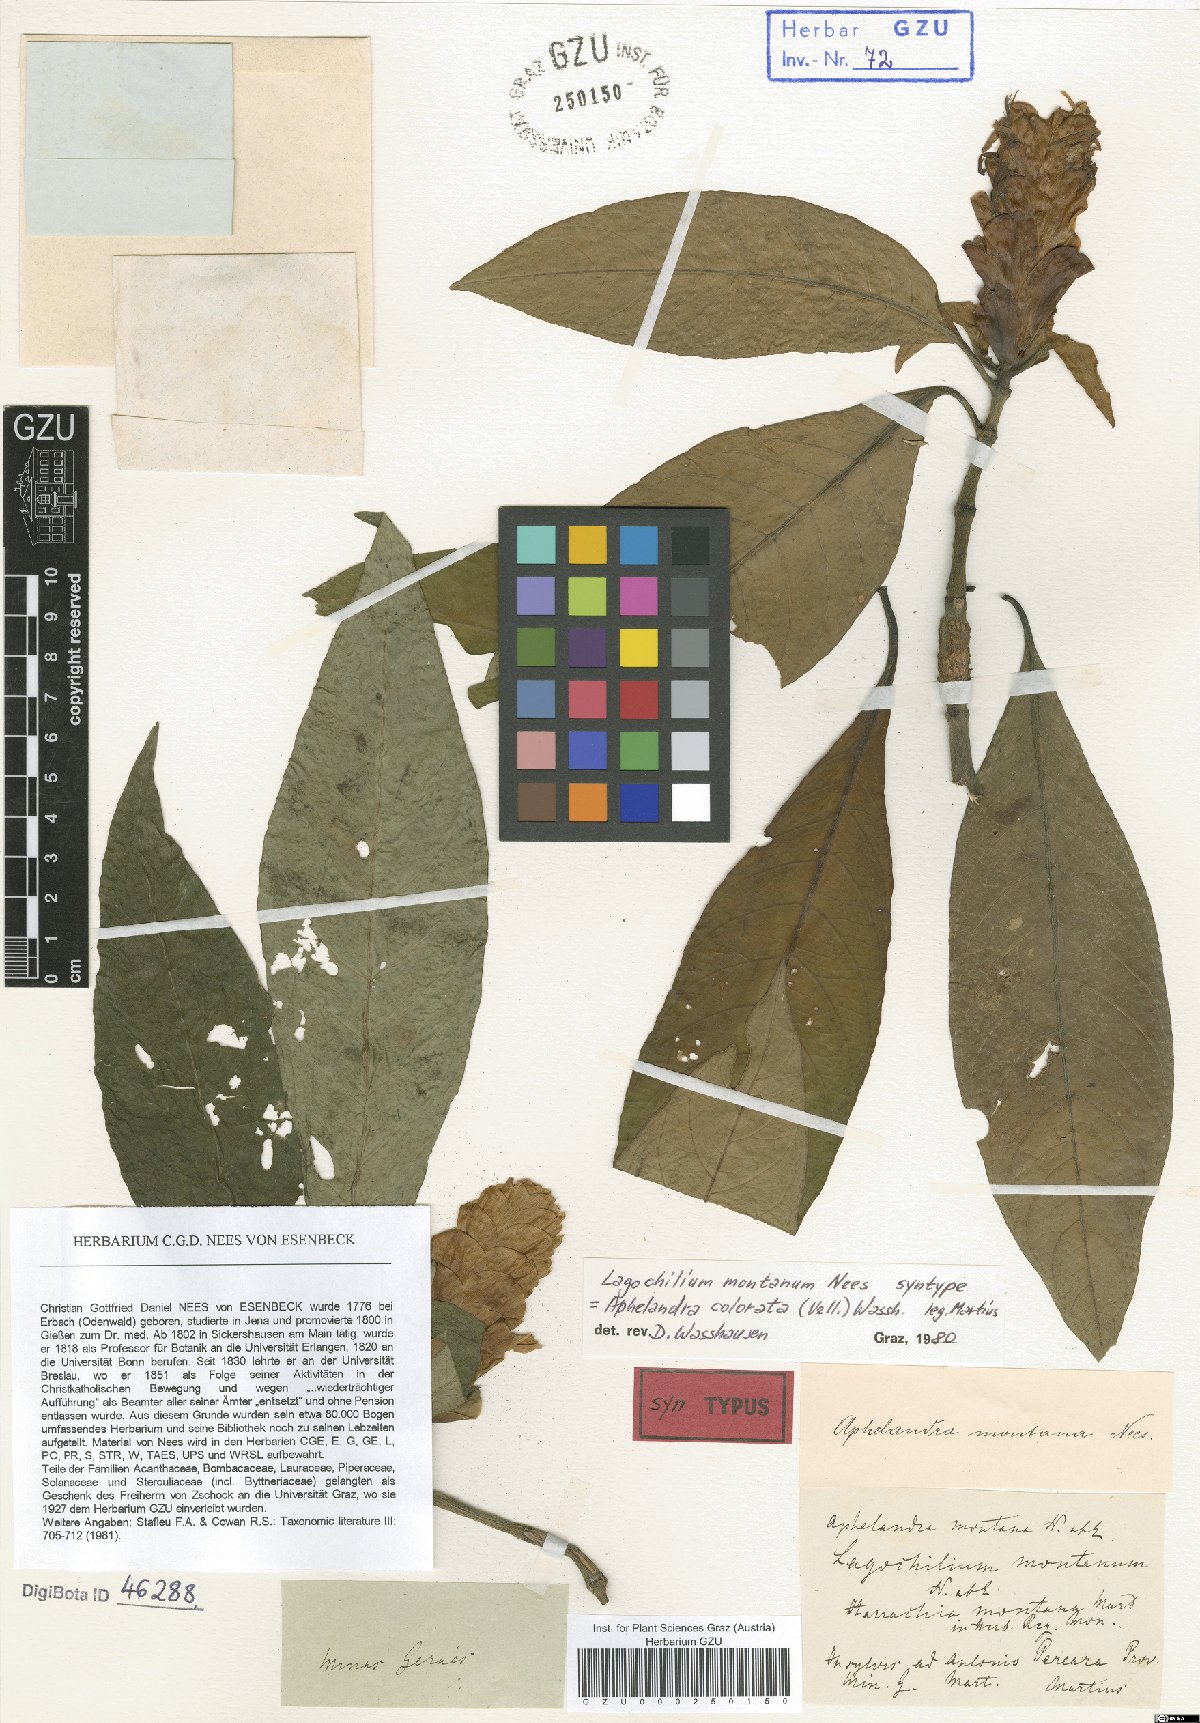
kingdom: Plantae
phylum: Tracheophyta
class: Magnoliopsida
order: Lamiales
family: Acanthaceae
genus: Aphelandra
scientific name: Aphelandra colorata
